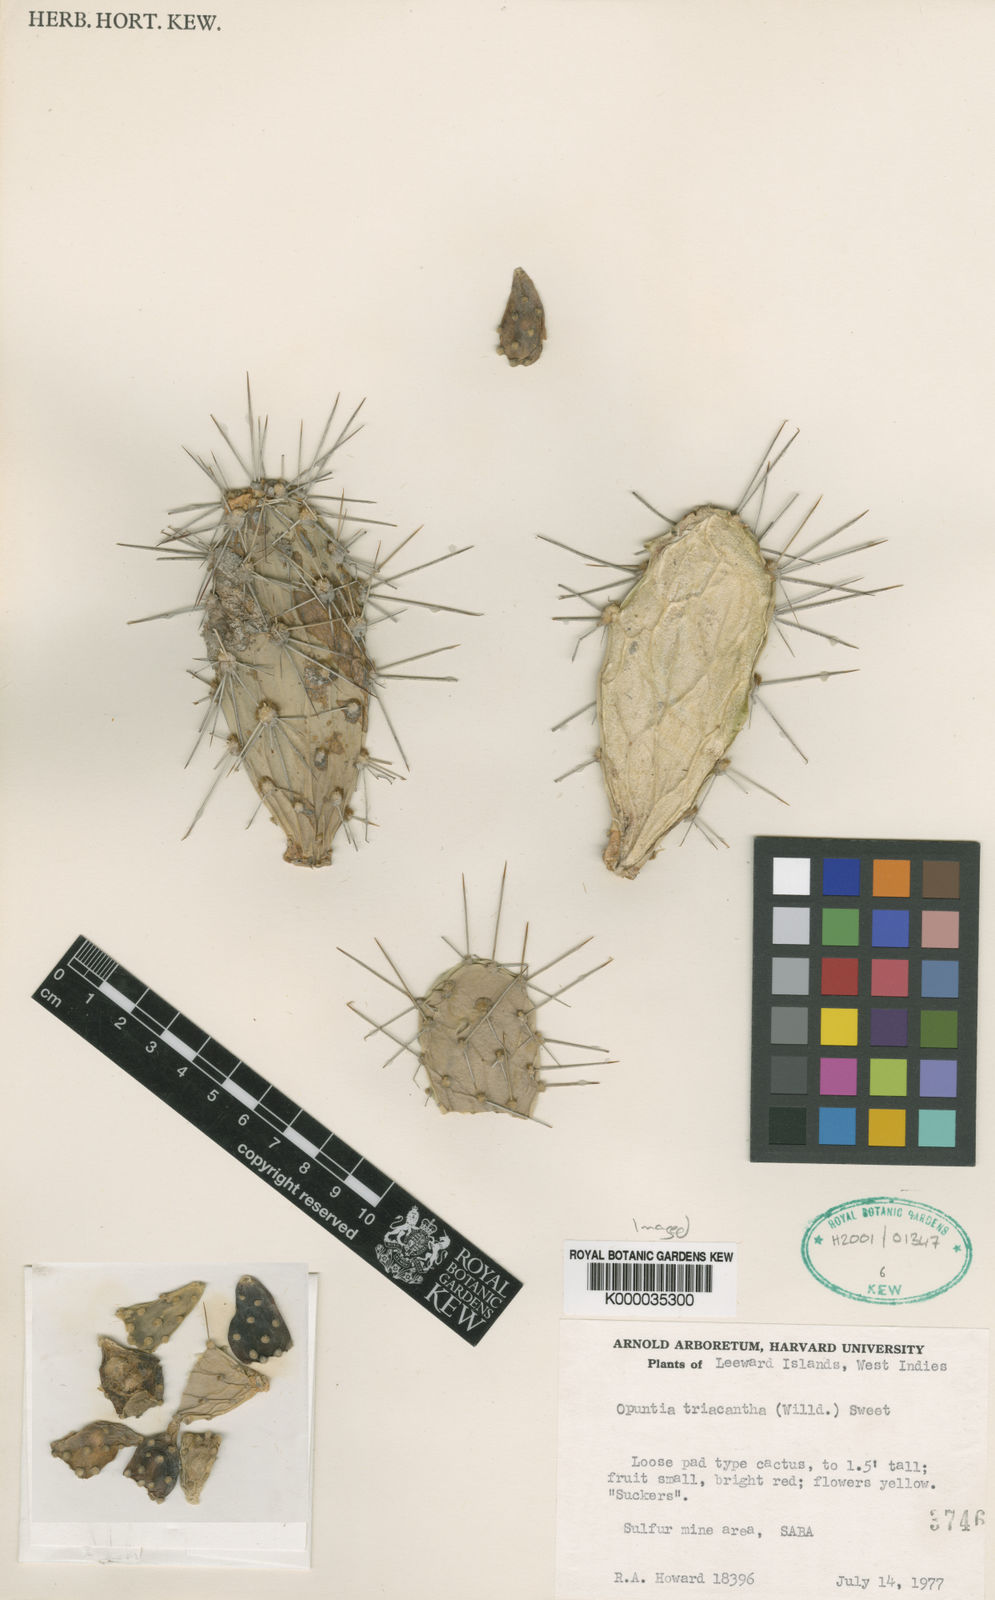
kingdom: Plantae
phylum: Tracheophyta
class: Magnoliopsida
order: Caryophyllales
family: Cactaceae
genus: Opuntia
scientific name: Opuntia
